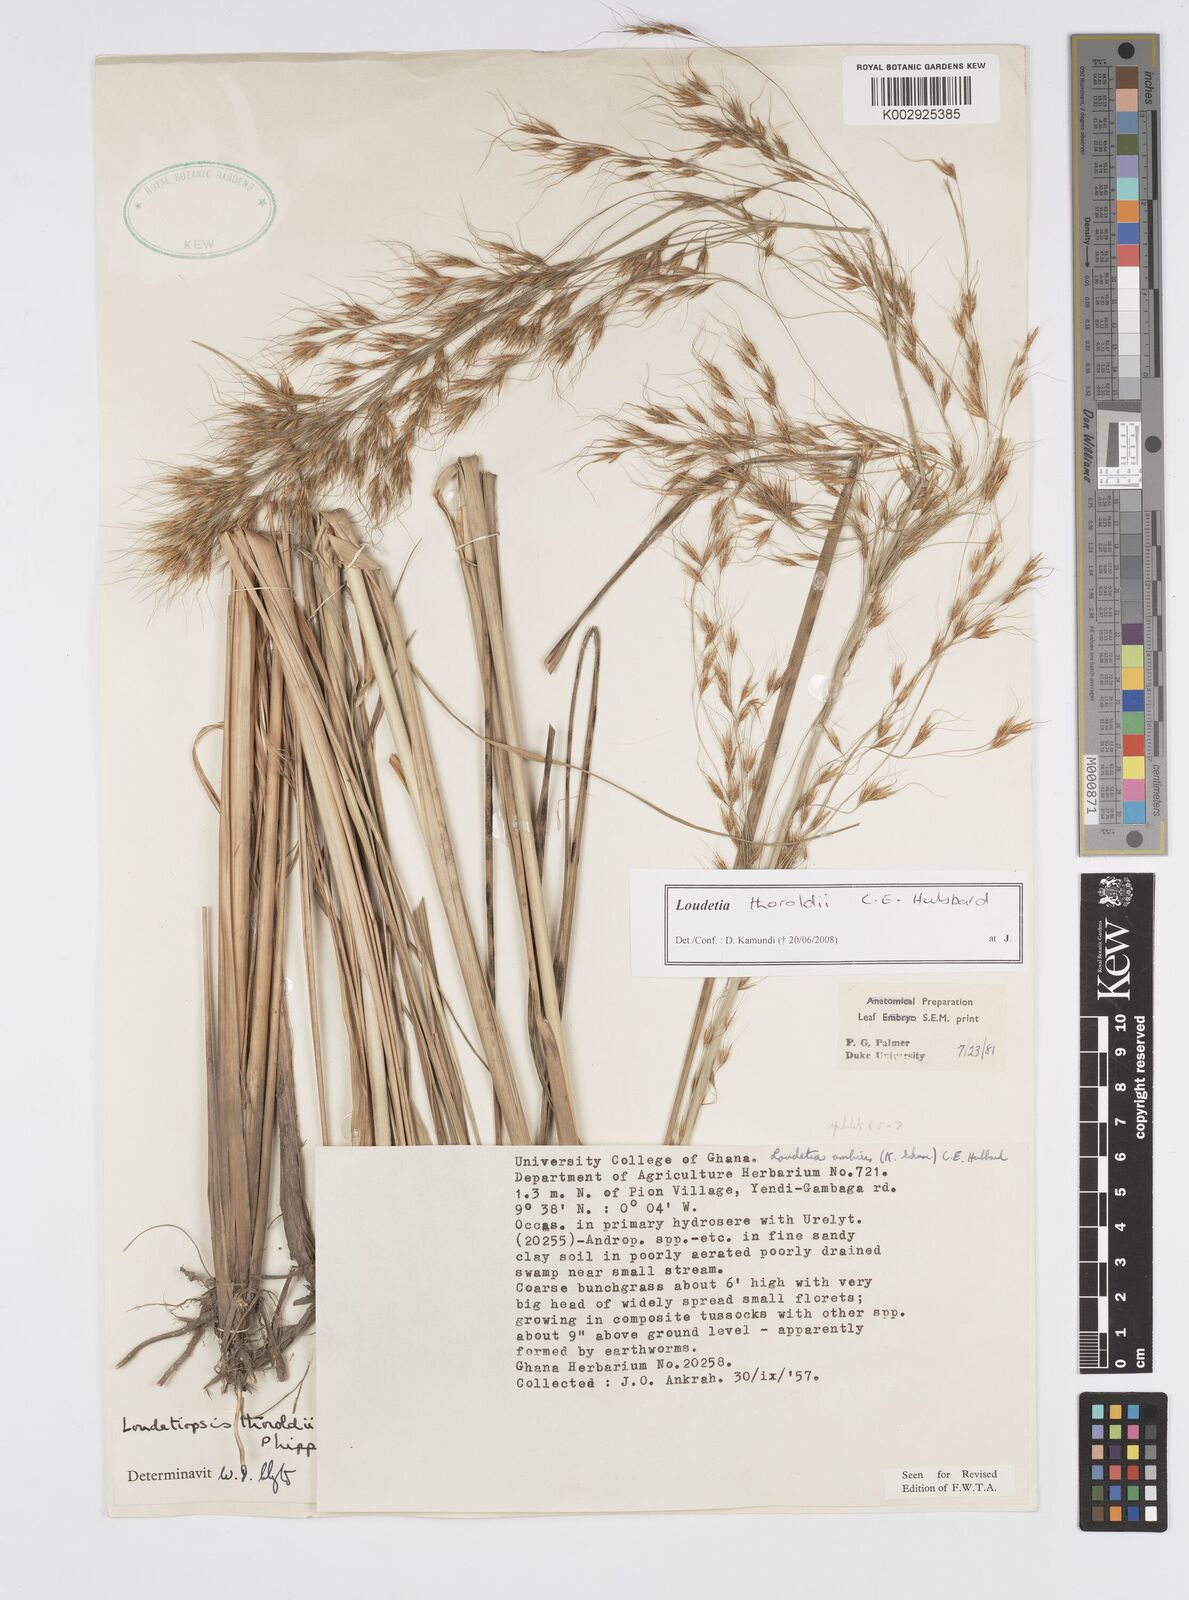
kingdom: Plantae
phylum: Tracheophyta
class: Liliopsida
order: Poales
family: Poaceae
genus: Loudetiopsis
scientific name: Loudetiopsis thoroldii
